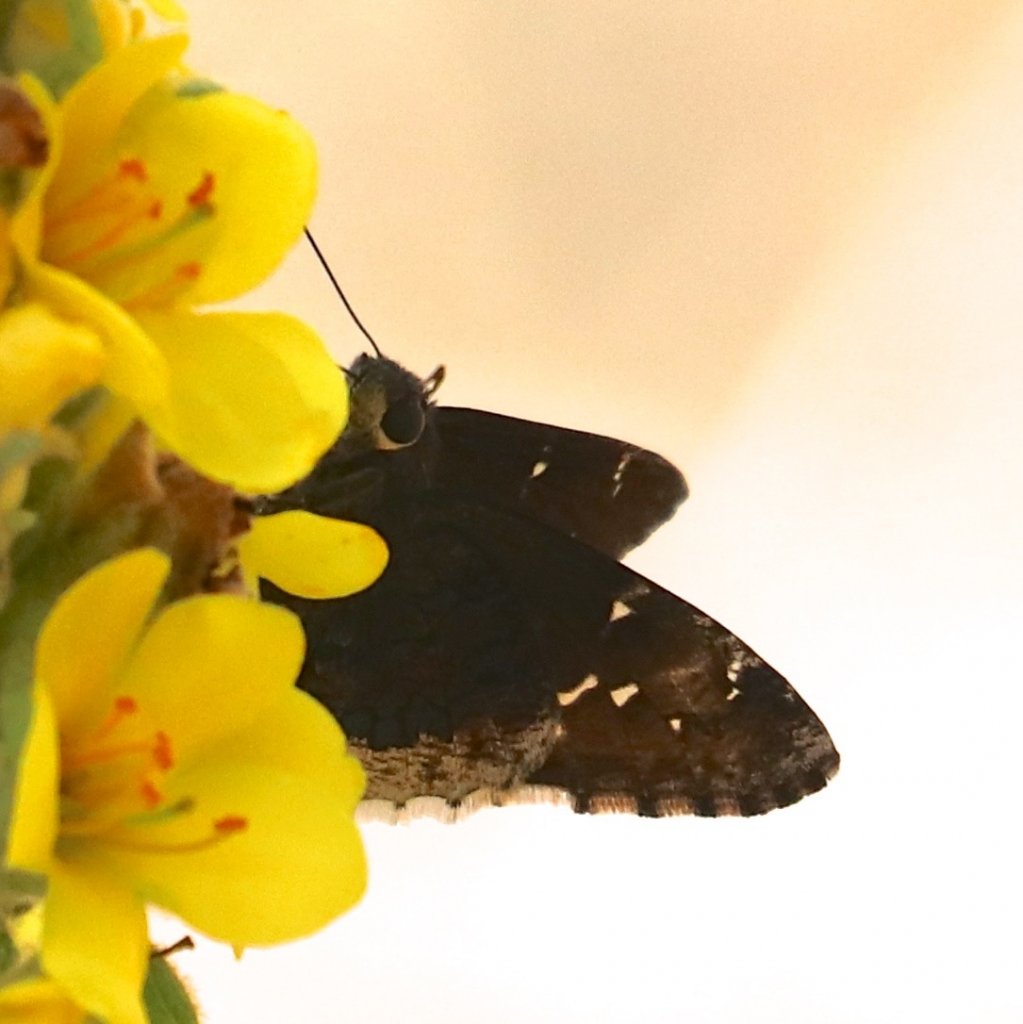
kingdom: Animalia
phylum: Arthropoda
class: Insecta
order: Lepidoptera
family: Hesperiidae
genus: Achalarus
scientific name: Achalarus casica
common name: Desert Cloudywing
